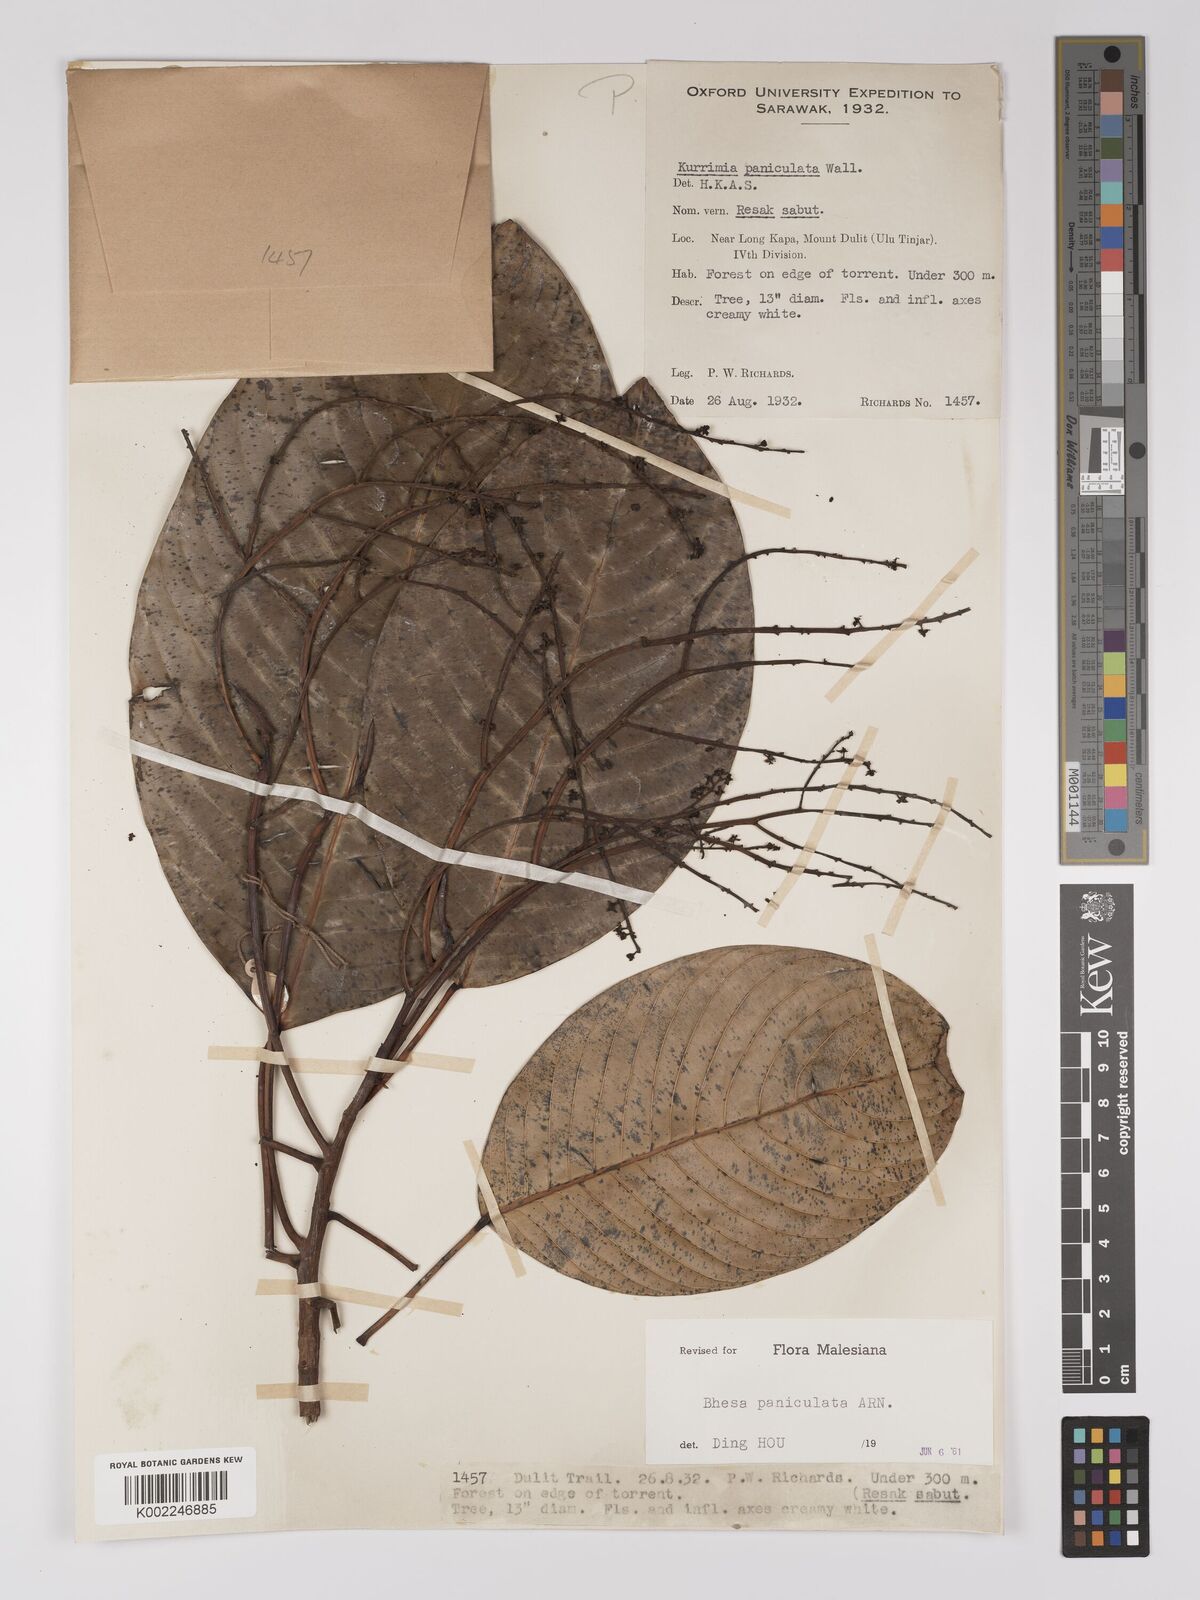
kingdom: Plantae
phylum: Tracheophyta
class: Magnoliopsida
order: Malpighiales
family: Centroplacaceae
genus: Bhesa
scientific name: Bhesa paniculata
